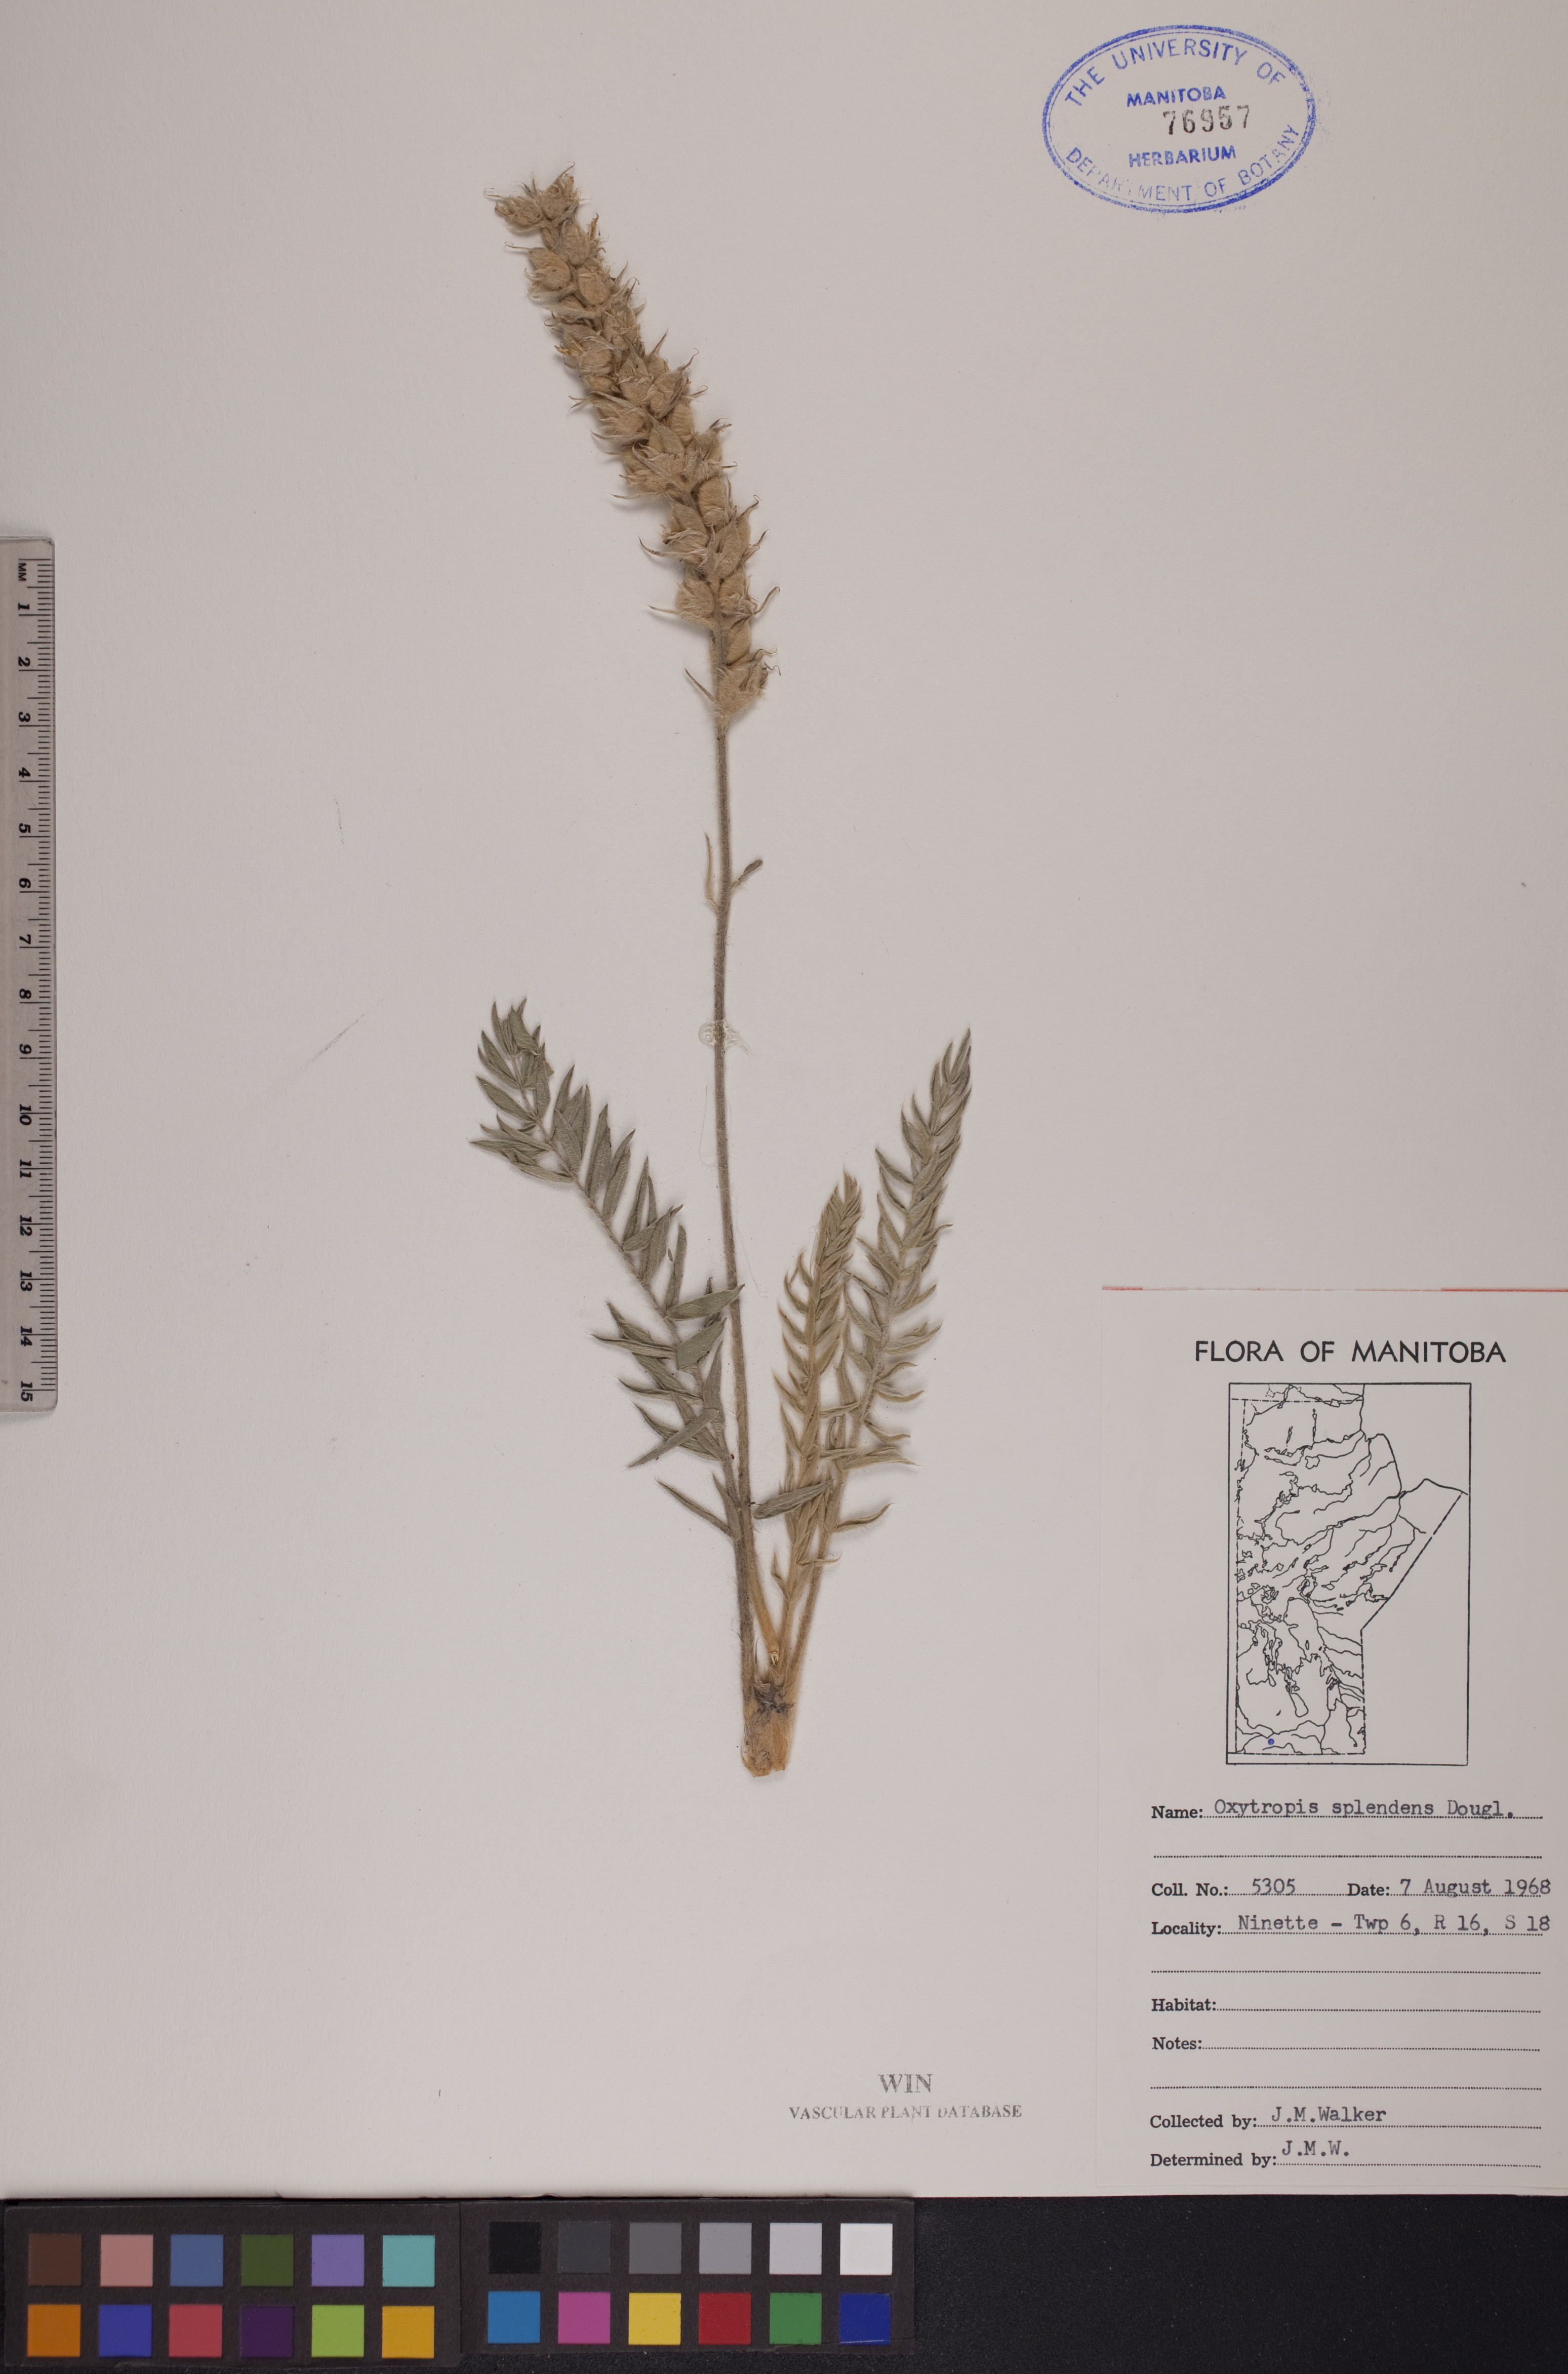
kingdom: Plantae
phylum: Tracheophyta
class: Magnoliopsida
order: Fabales
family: Fabaceae
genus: Oxytropis
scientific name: Oxytropis splendens
